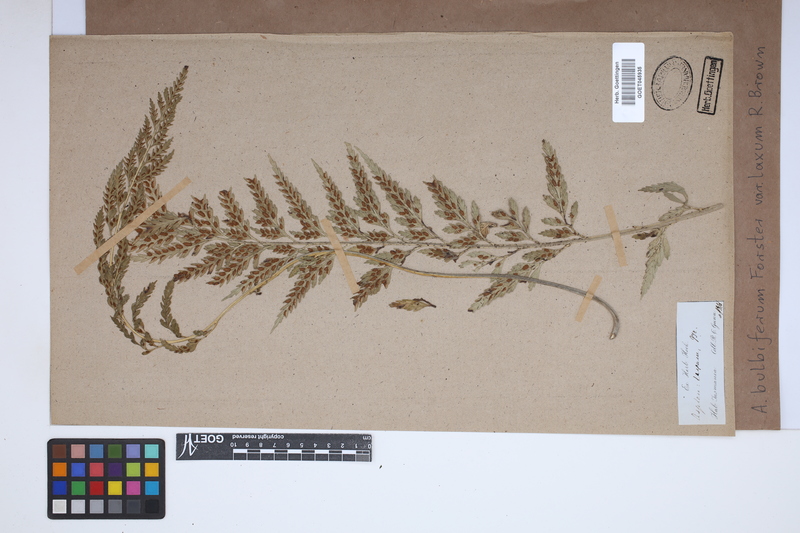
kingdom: Plantae
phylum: Tracheophyta
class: Polypodiopsida
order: Polypodiales
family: Aspleniaceae
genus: Asplenium
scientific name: Asplenium bulbiferum
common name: Mother fern
